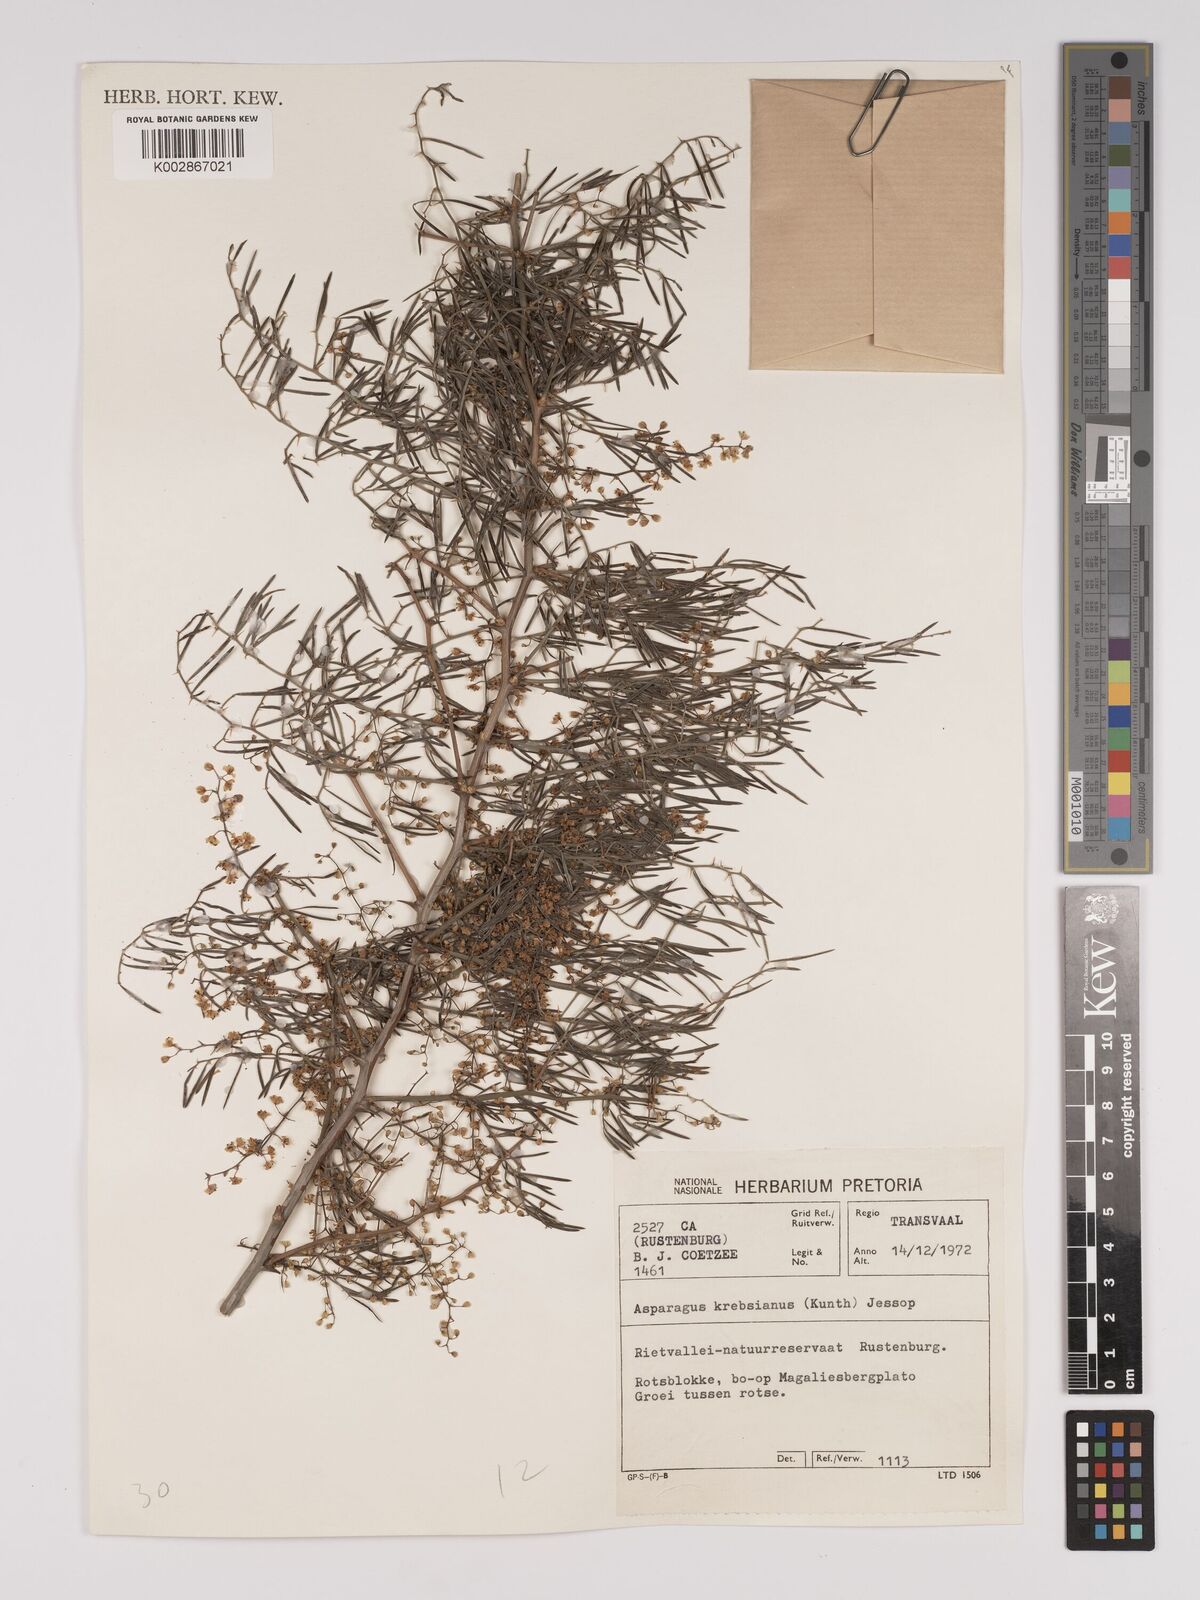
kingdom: Plantae
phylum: Tracheophyta
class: Liliopsida
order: Asparagales
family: Asparagaceae
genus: Asparagus
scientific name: Asparagus krebsianus
